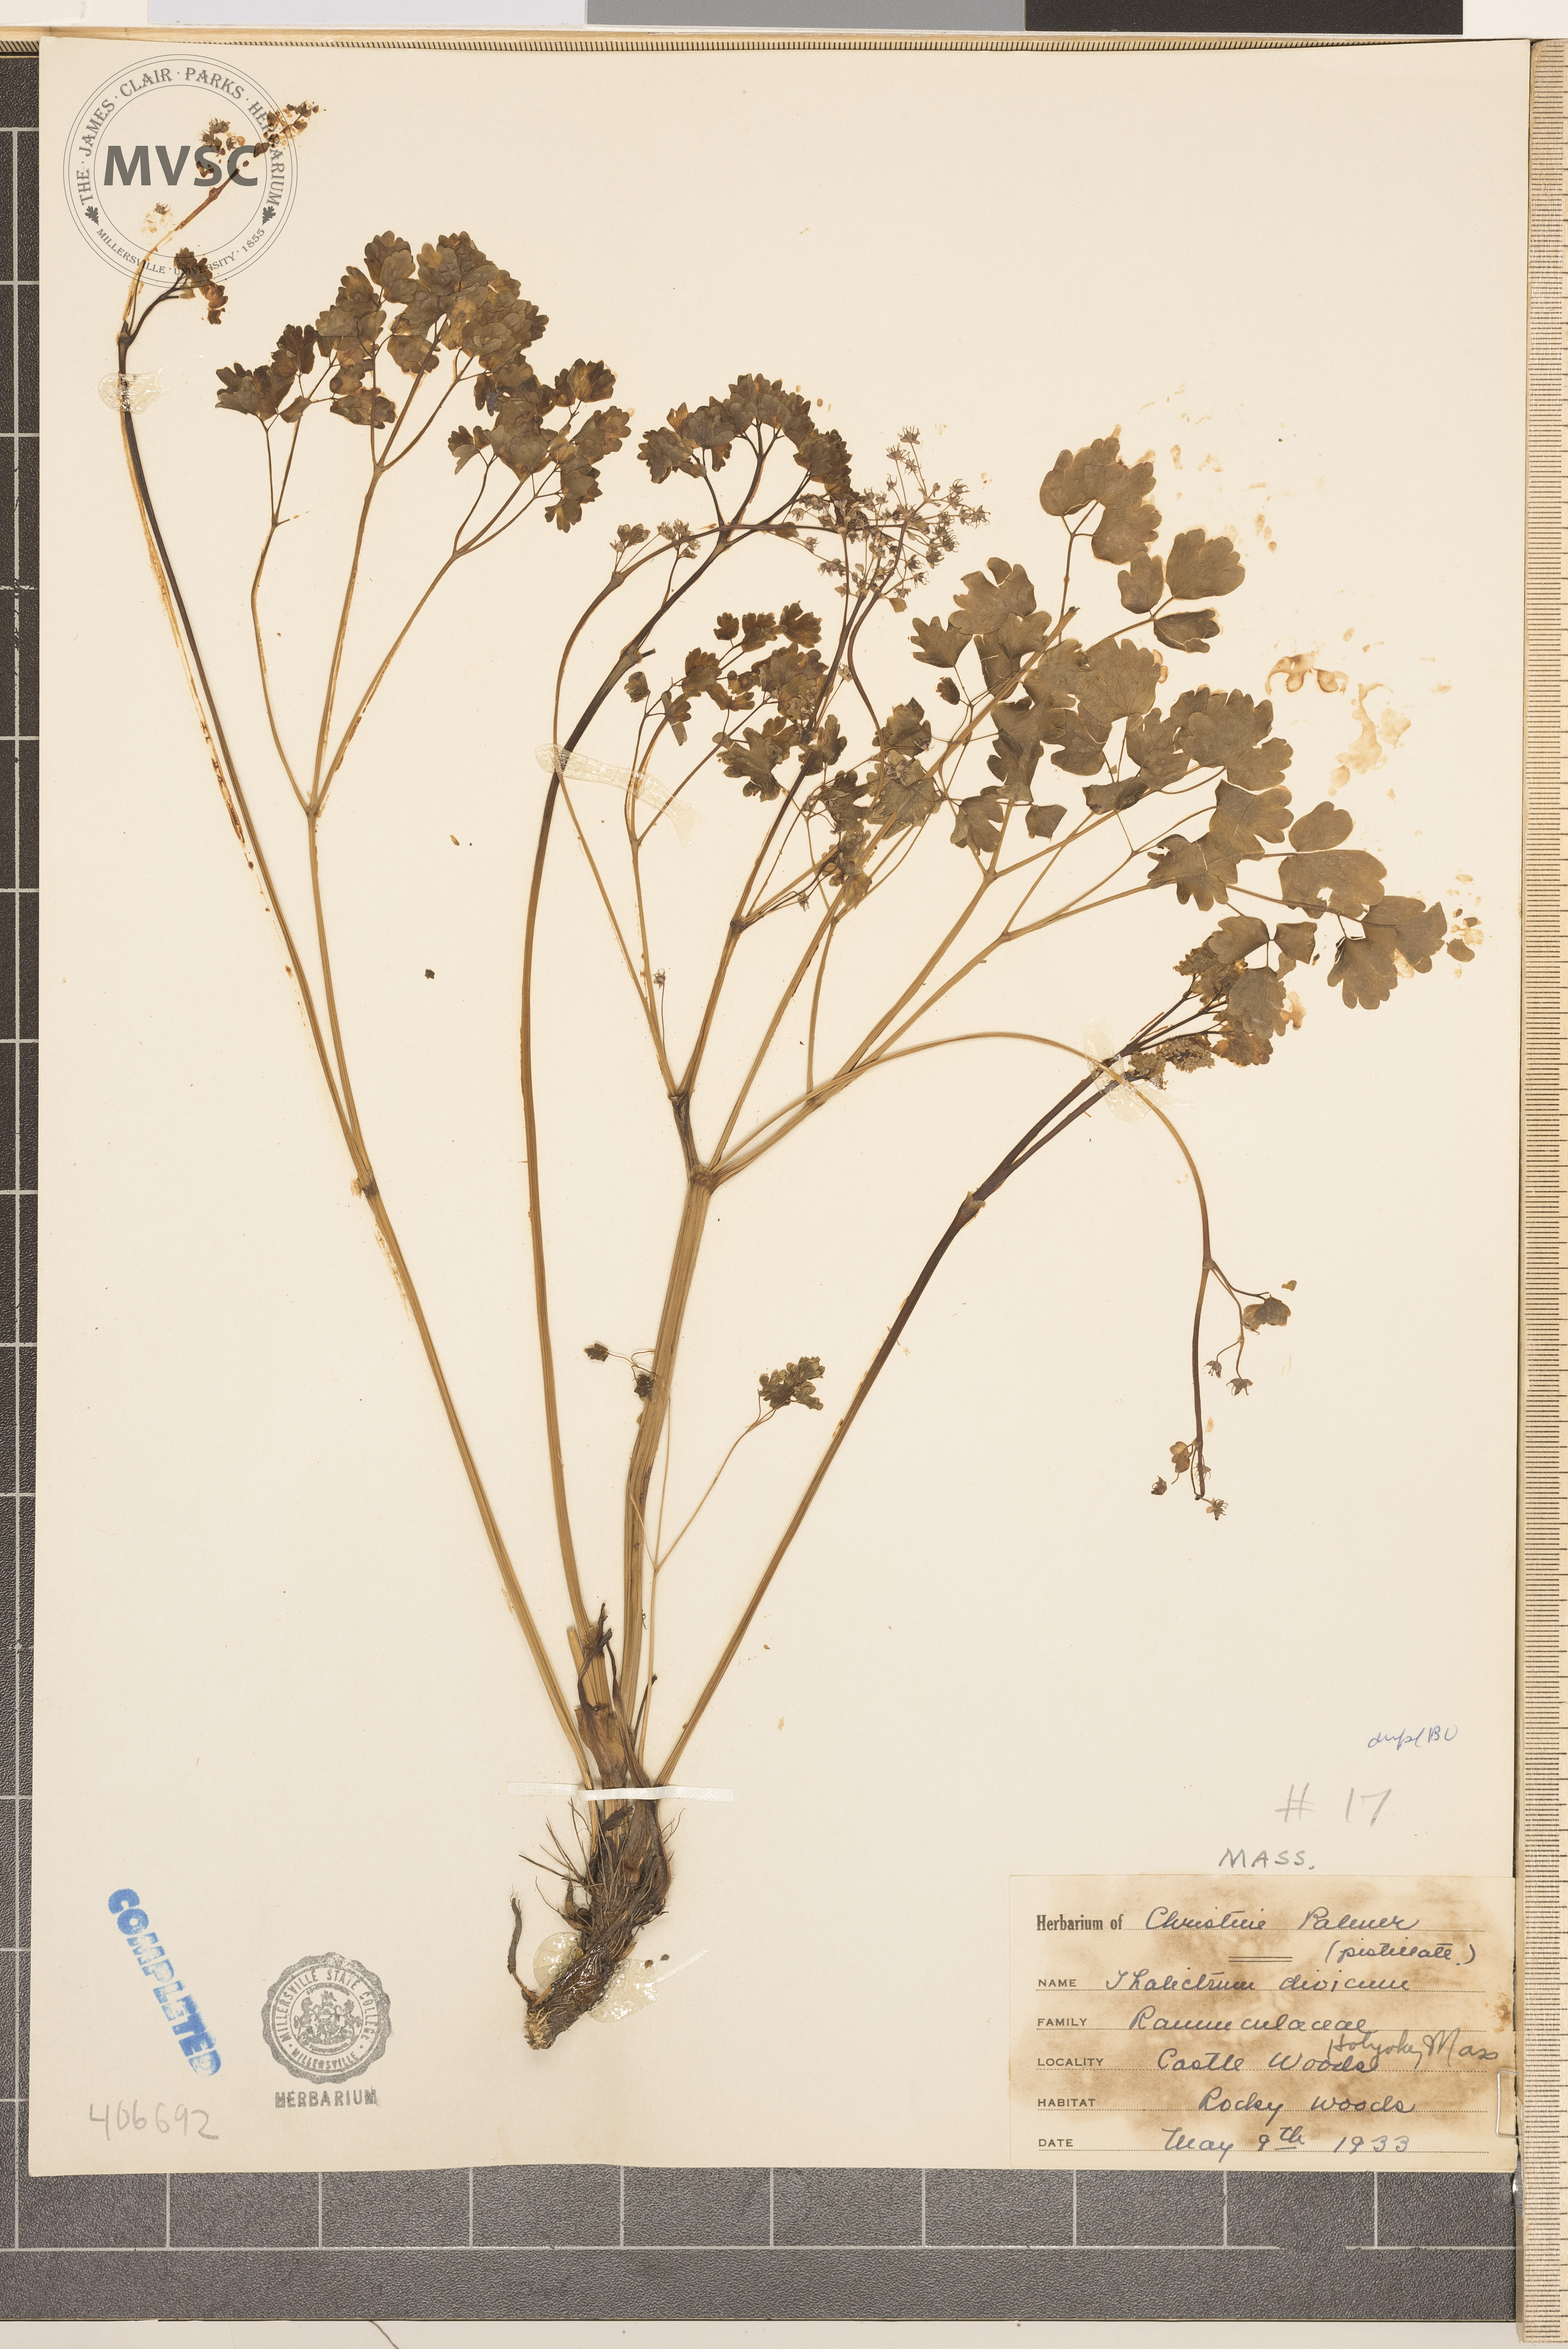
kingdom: Plantae
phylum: Tracheophyta
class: Magnoliopsida
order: Ranunculales
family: Ranunculaceae
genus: Thalictrum
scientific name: Thalictrum dioicum
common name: Early meadow-rue
